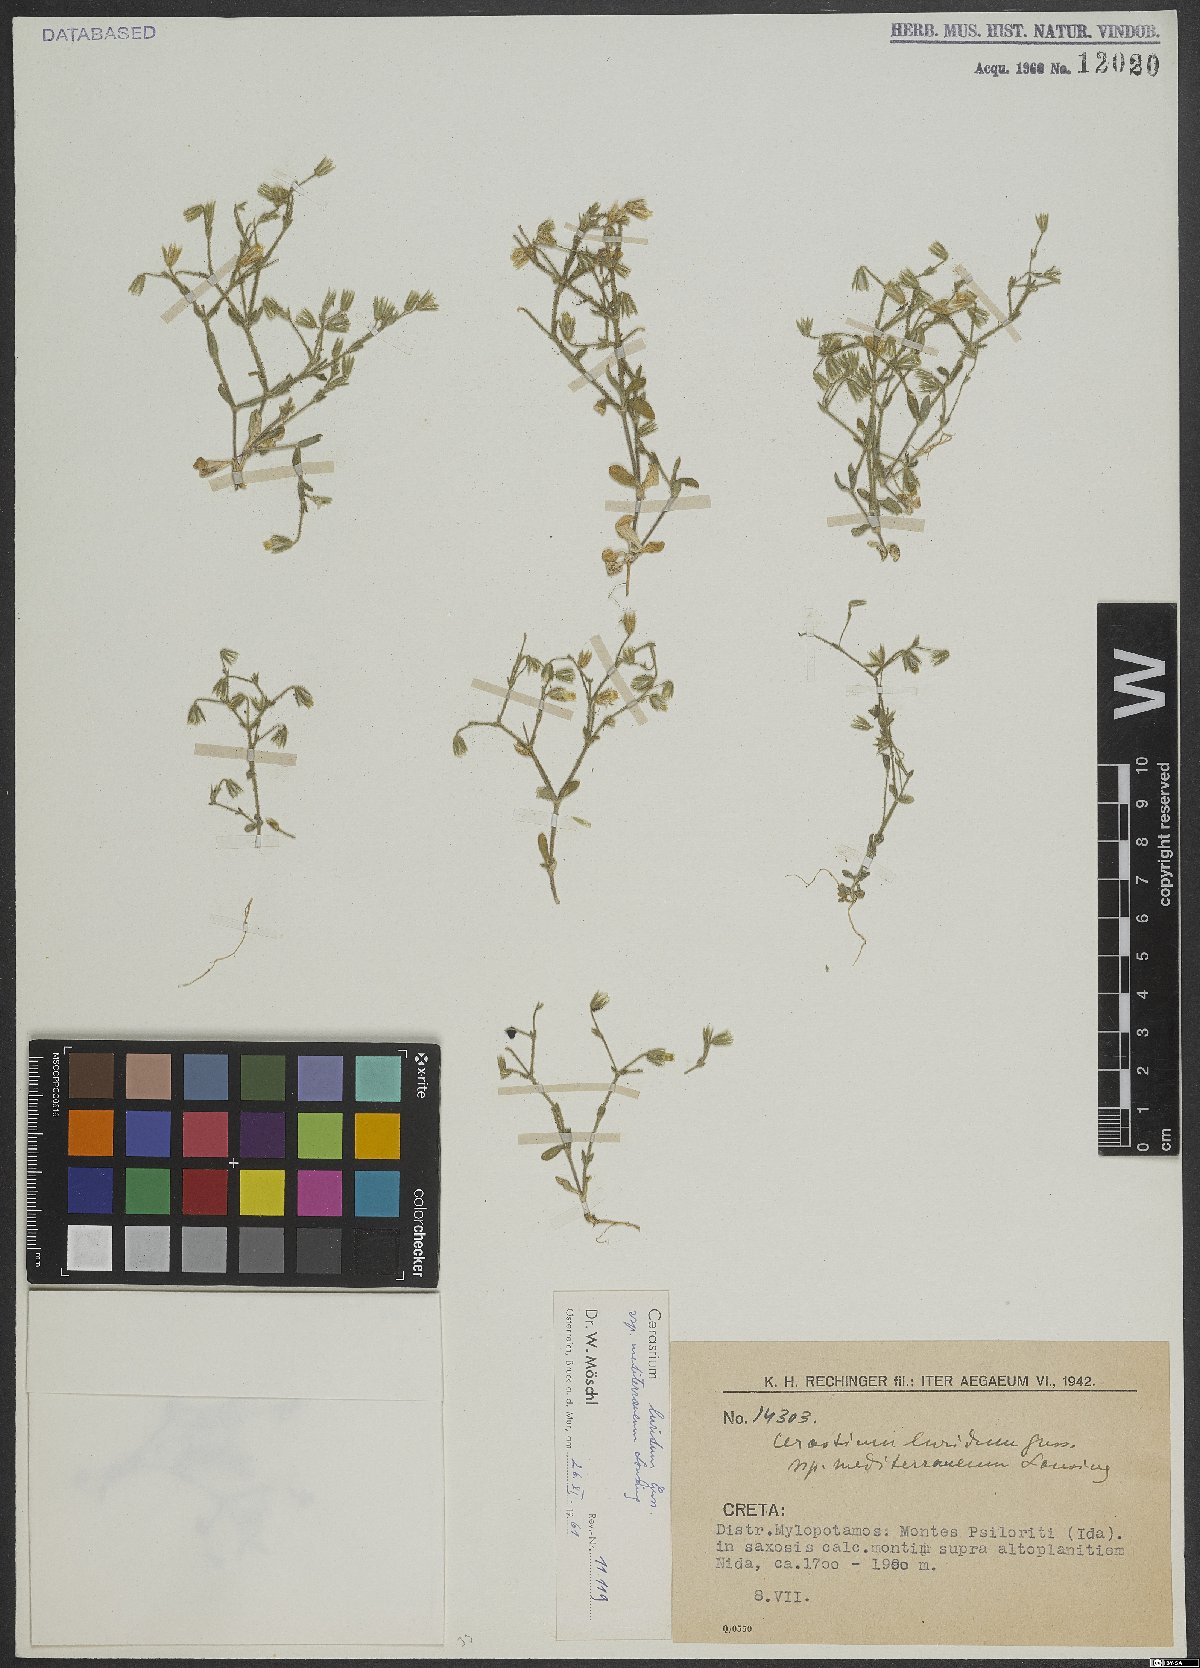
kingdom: Plantae
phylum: Tracheophyta
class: Magnoliopsida
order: Caryophyllales
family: Caryophyllaceae
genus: Cerastium
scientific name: Cerastium brachypetalum
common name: Grey mouse-ear
